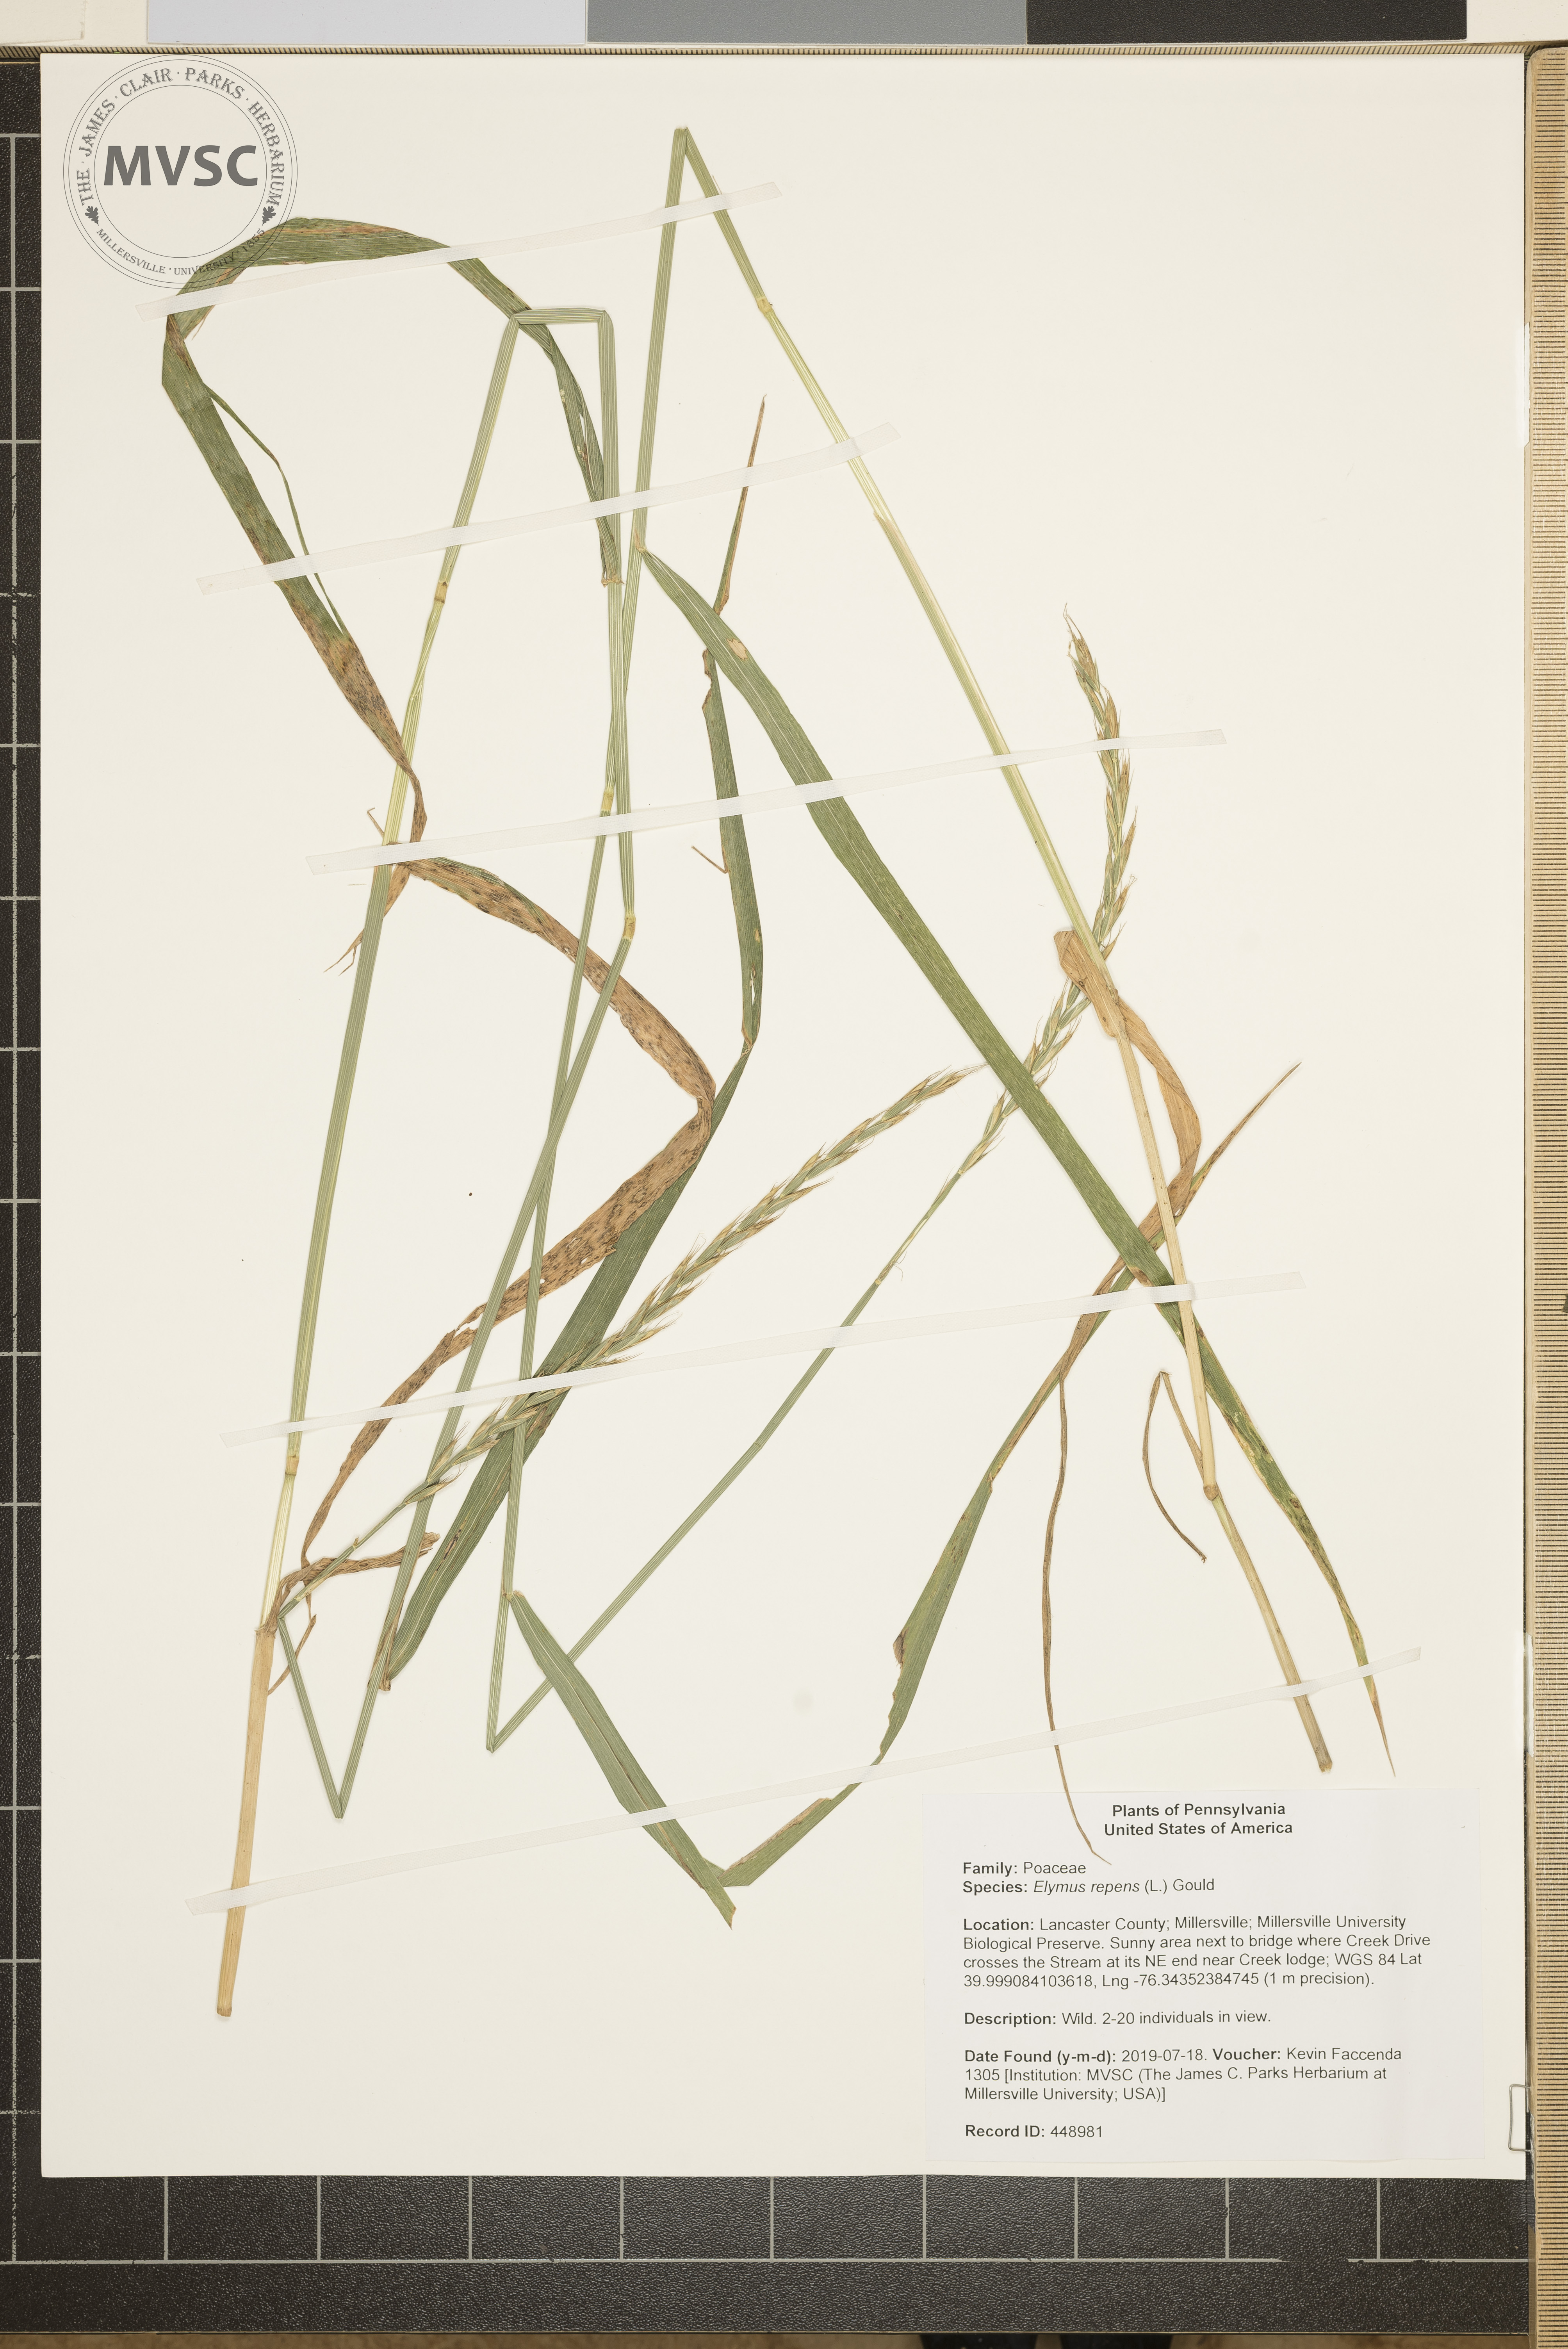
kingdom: Plantae
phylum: Tracheophyta
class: Liliopsida
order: Poales
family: Poaceae
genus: Elymus
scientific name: Elymus repens
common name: Quackgrass
